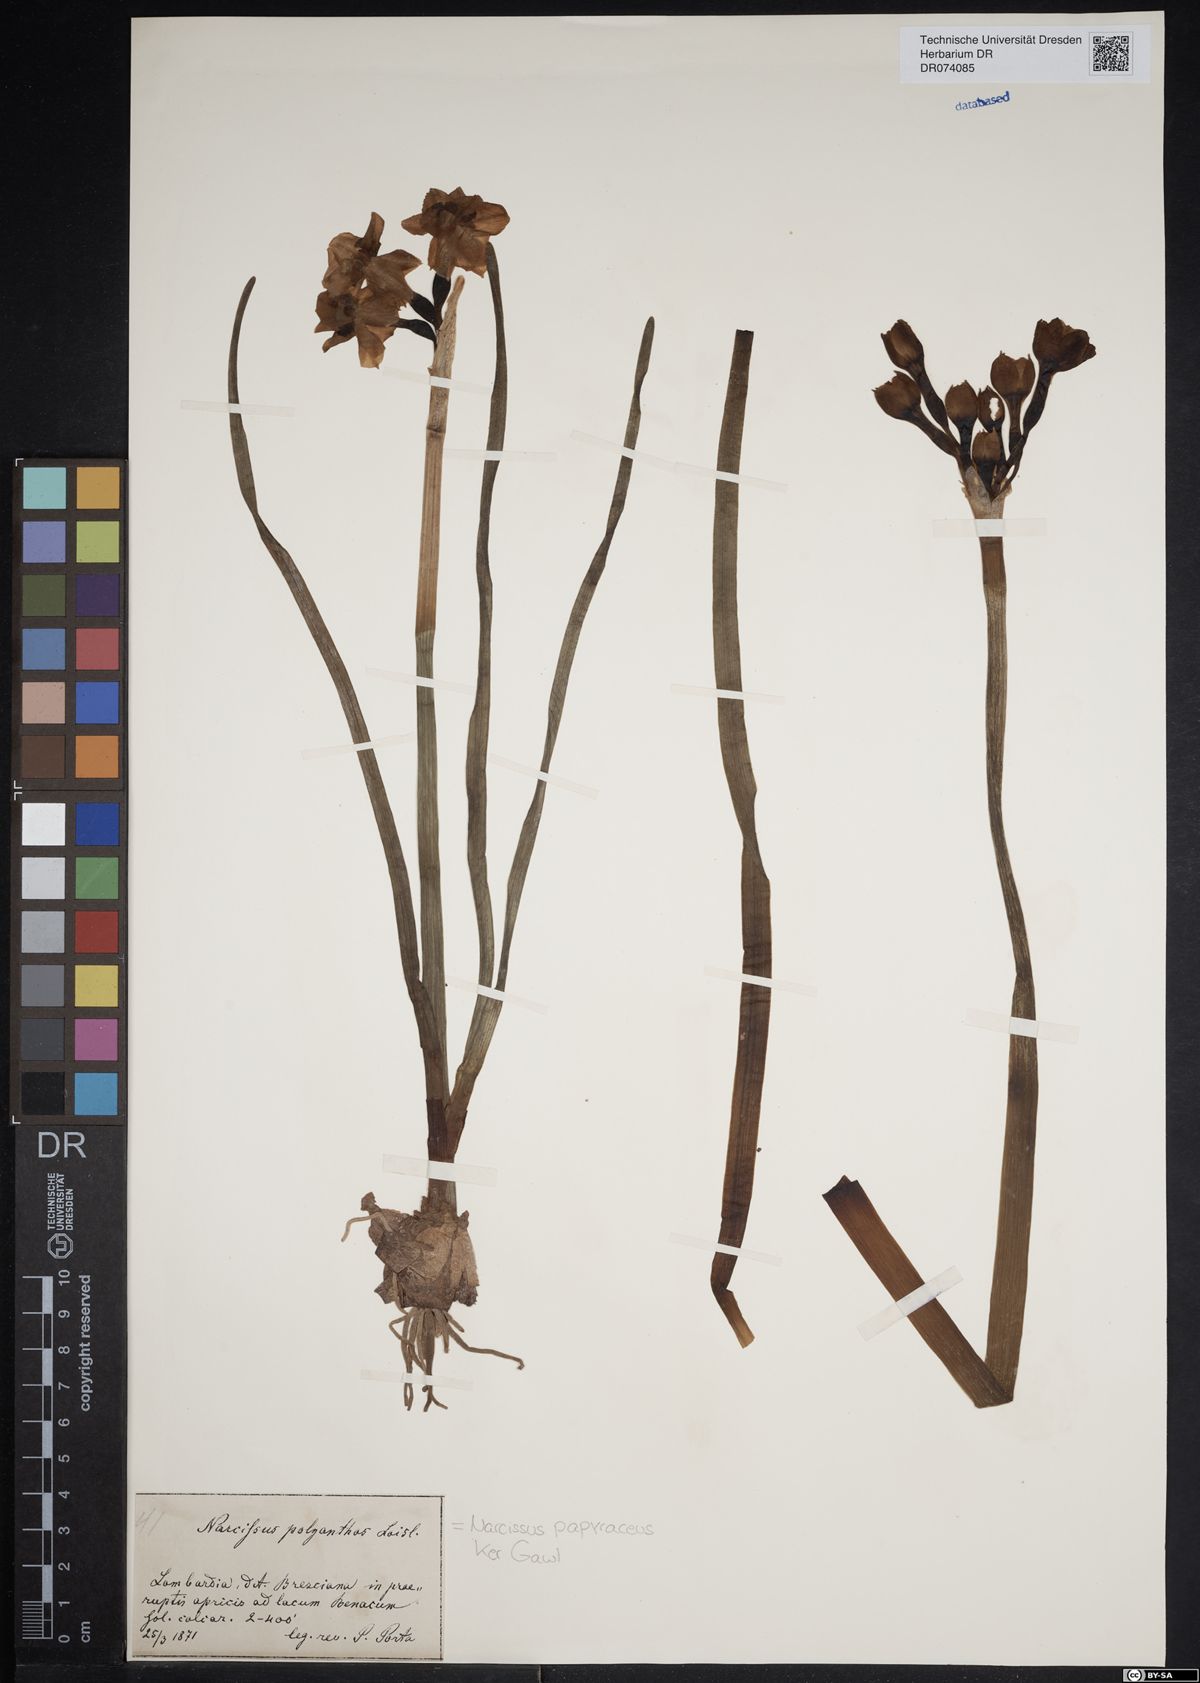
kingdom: Plantae
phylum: Tracheophyta
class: Liliopsida
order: Asparagales
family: Amaryllidaceae
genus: Narcissus
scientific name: Narcissus papyraceus
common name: Paper-white daffodil
